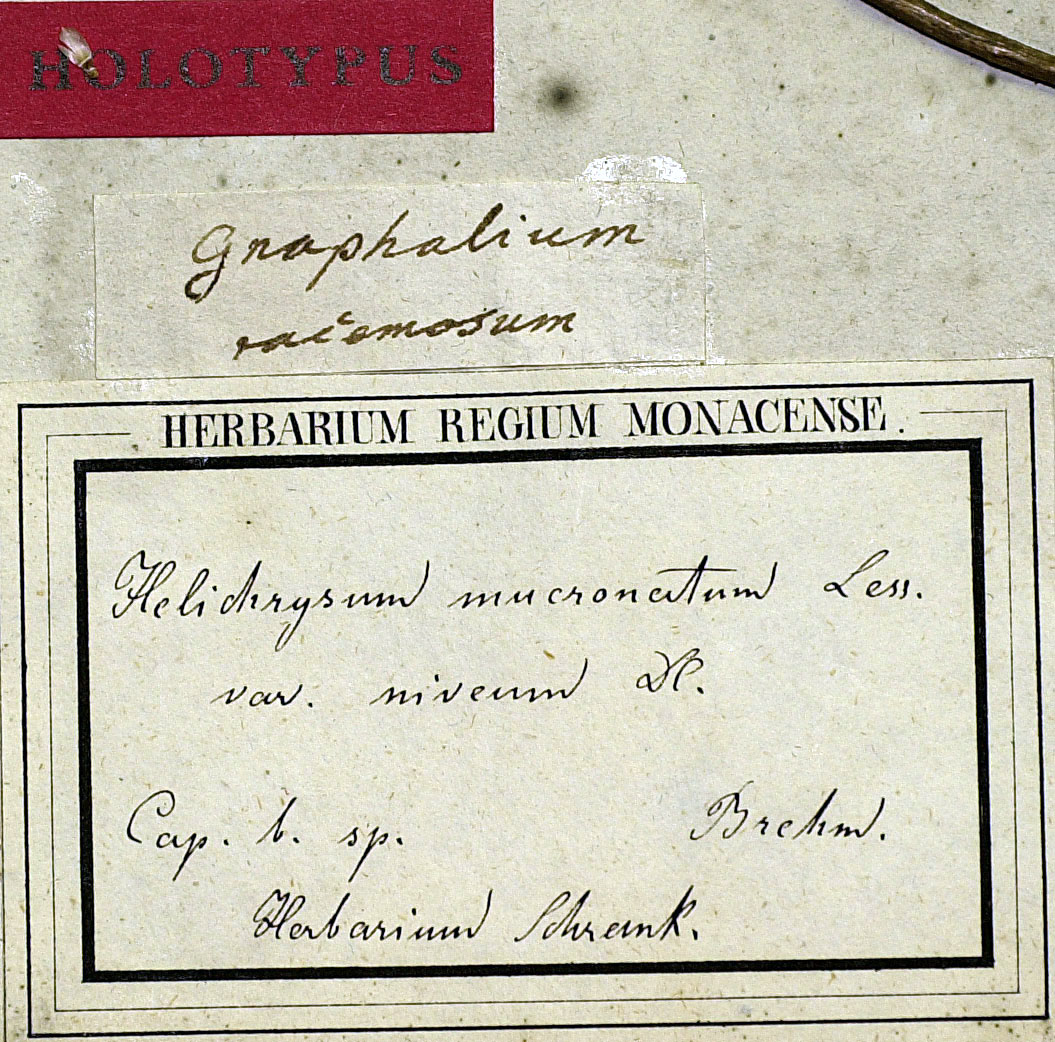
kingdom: Plantae
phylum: Tracheophyta
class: Magnoliopsida
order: Asterales
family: Asteraceae
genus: Achyranthemum
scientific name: Achyranthemum mucronatum
